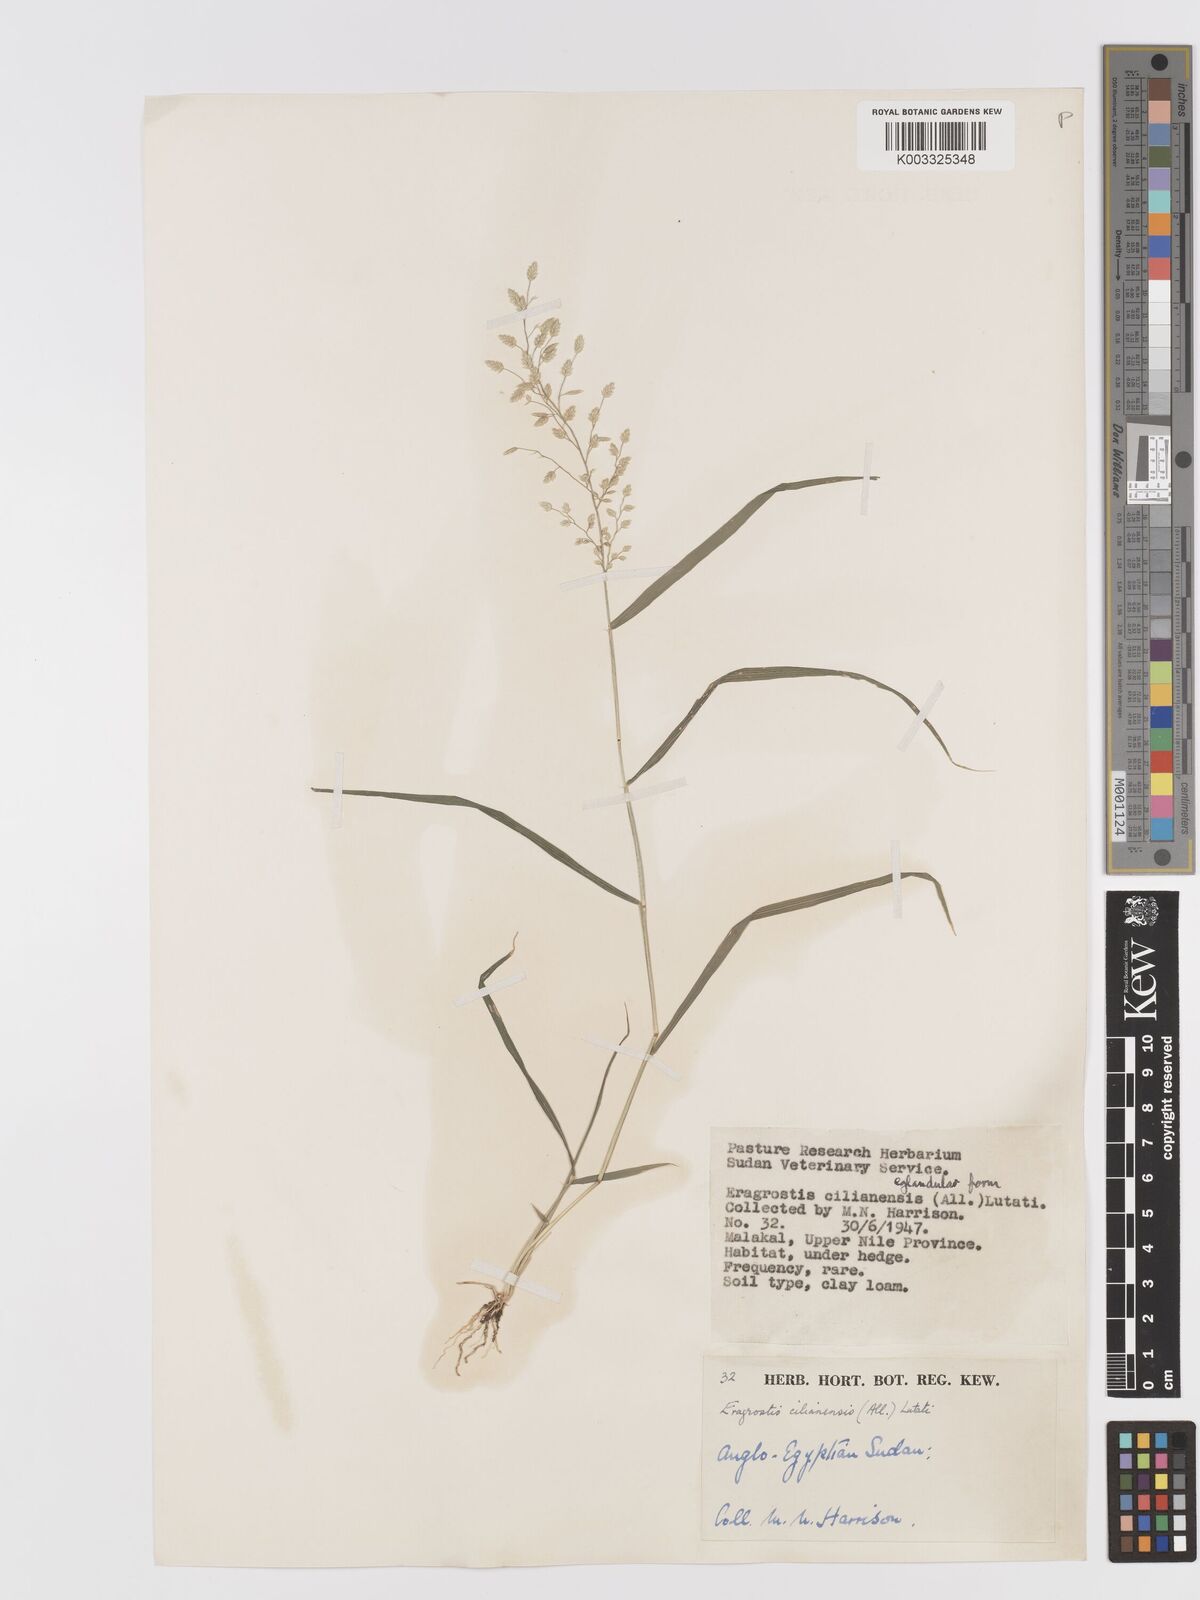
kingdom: Plantae
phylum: Tracheophyta
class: Liliopsida
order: Poales
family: Poaceae
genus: Eragrostis
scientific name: Eragrostis cilianensis
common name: Stinkgrass
